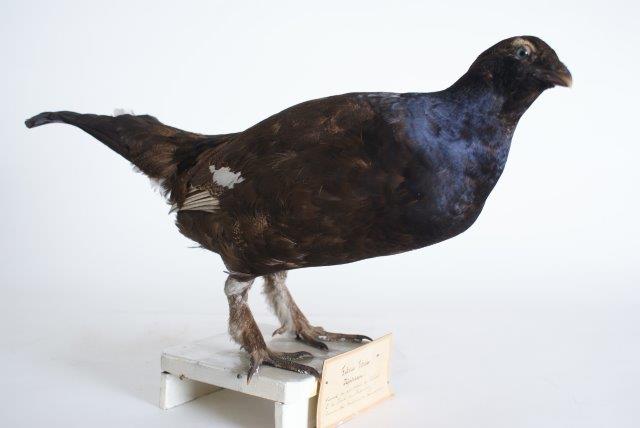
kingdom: Animalia
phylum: Chordata
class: Aves
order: Galliformes
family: Phasianidae
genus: Lyrurus
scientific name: Lyrurus tetrix
